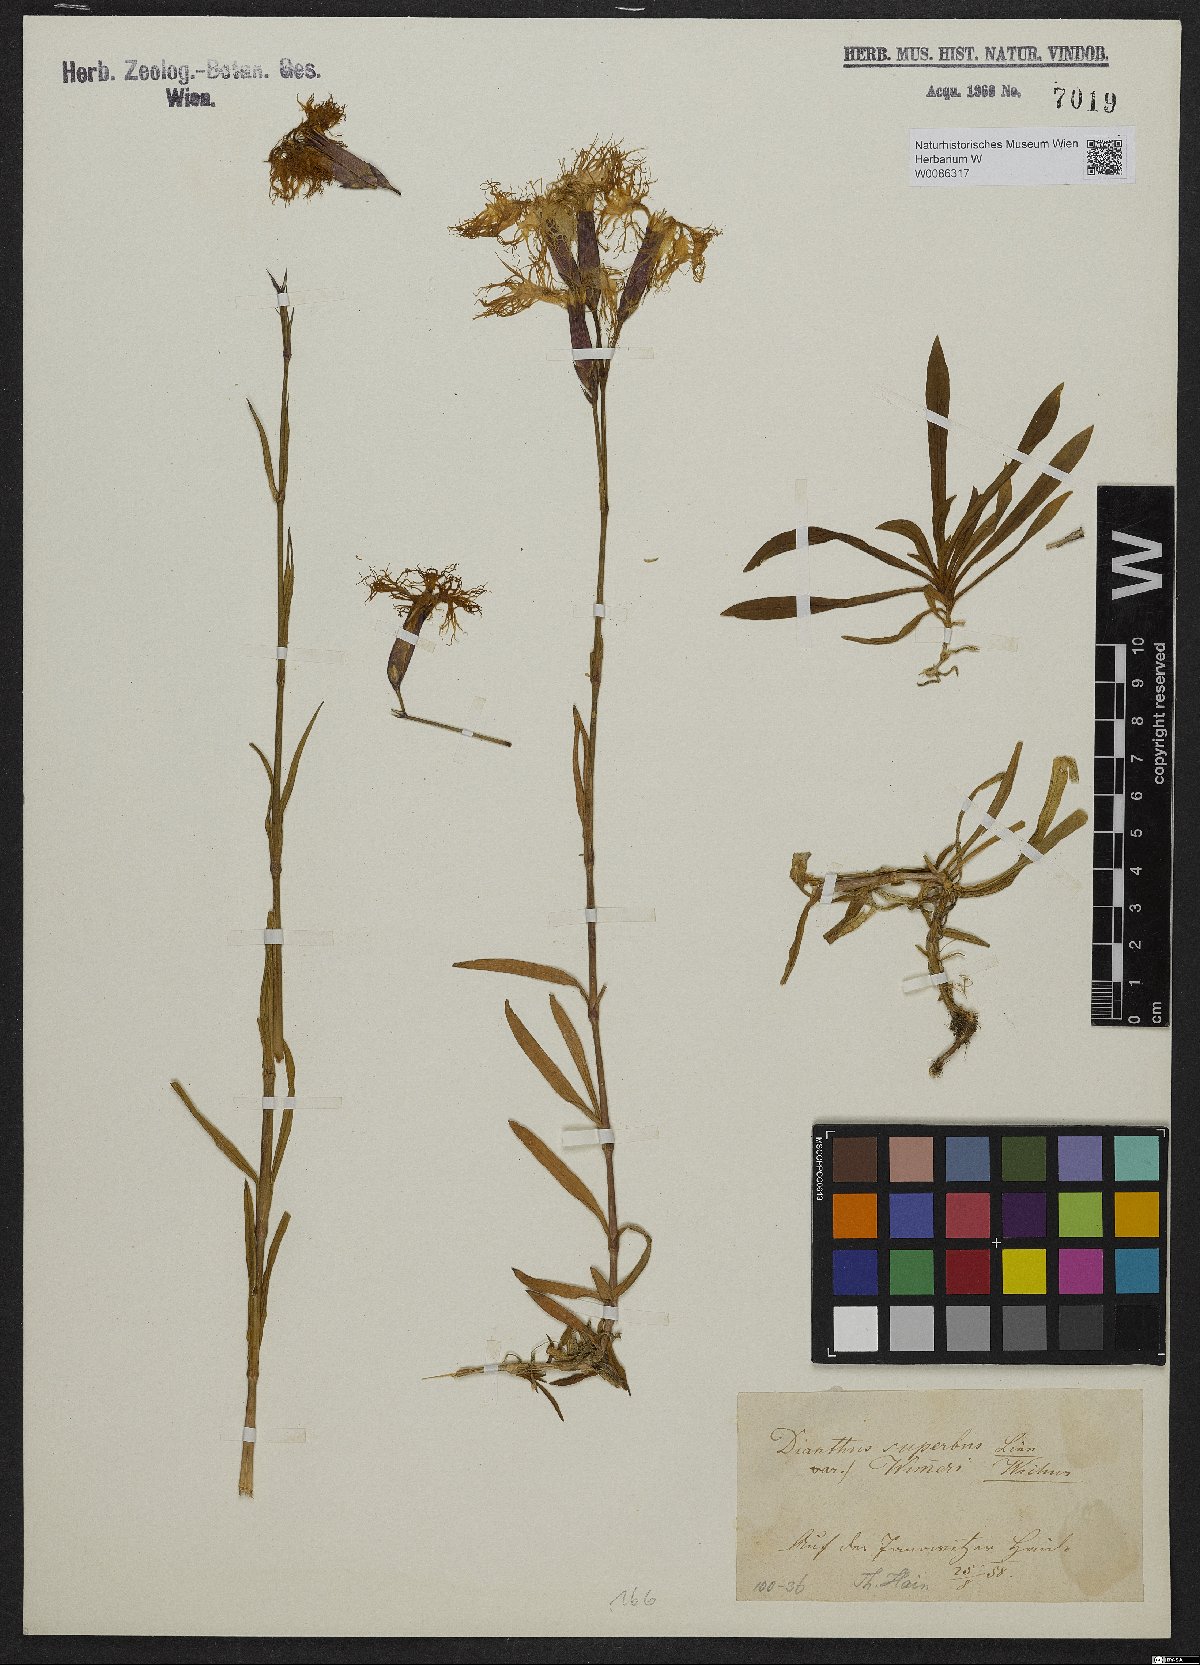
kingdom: Plantae
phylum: Tracheophyta
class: Magnoliopsida
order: Caryophyllales
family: Caryophyllaceae
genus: Dianthus
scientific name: Dianthus superbus
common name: Fringed pink
